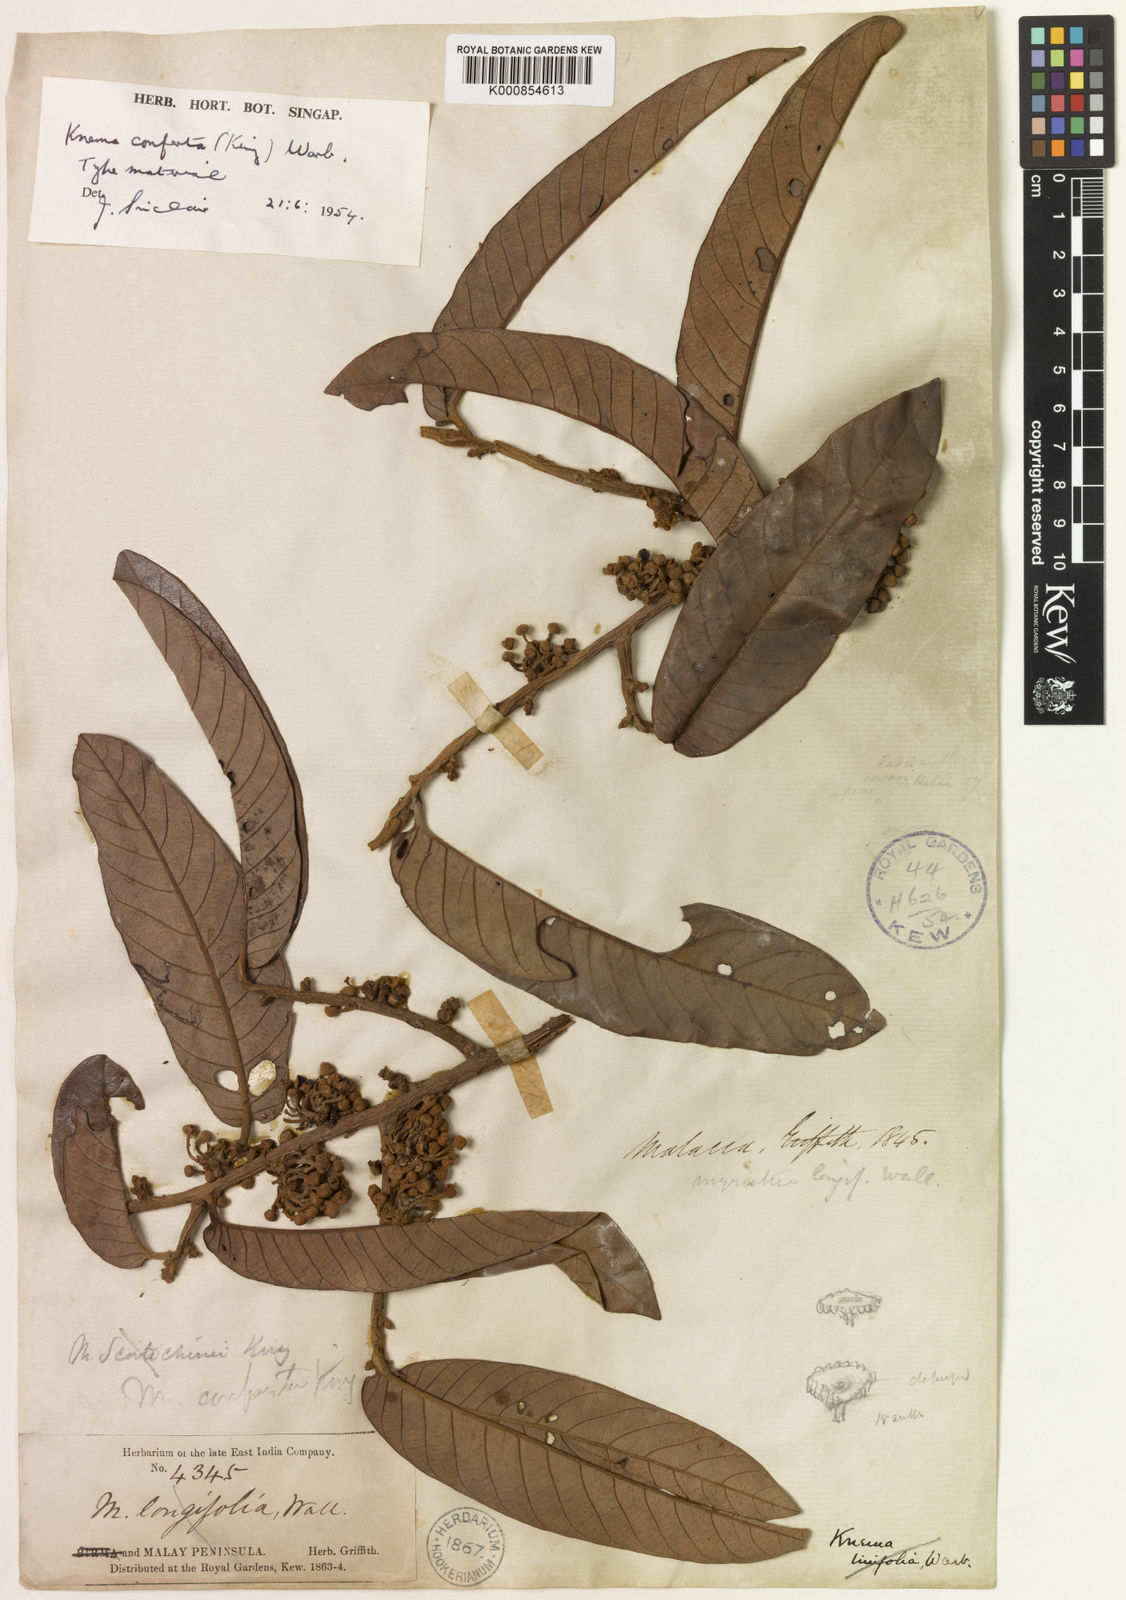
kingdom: Plantae
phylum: Tracheophyta
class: Magnoliopsida
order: Magnoliales
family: Myristicaceae
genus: Knema
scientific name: Knema conferta
